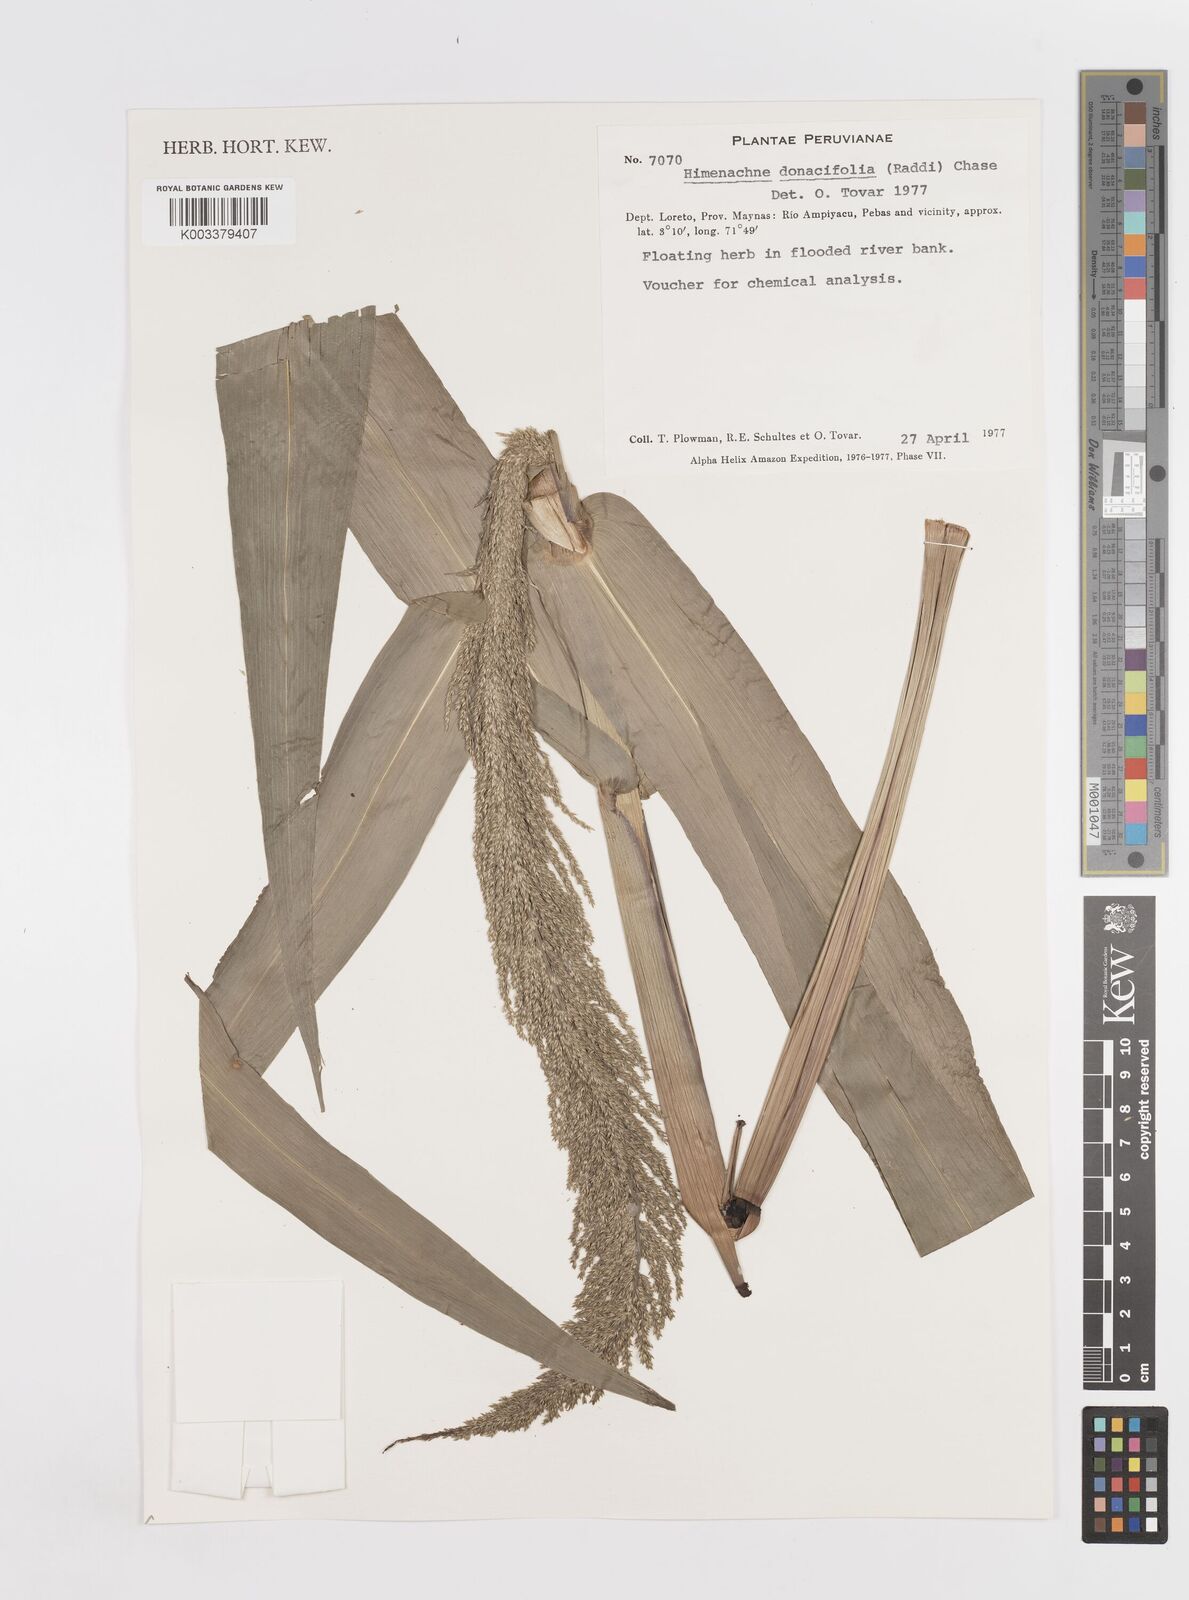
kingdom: Plantae
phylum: Tracheophyta
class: Liliopsida
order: Poales
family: Poaceae
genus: Hymenachne
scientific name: Hymenachne donacifolia
